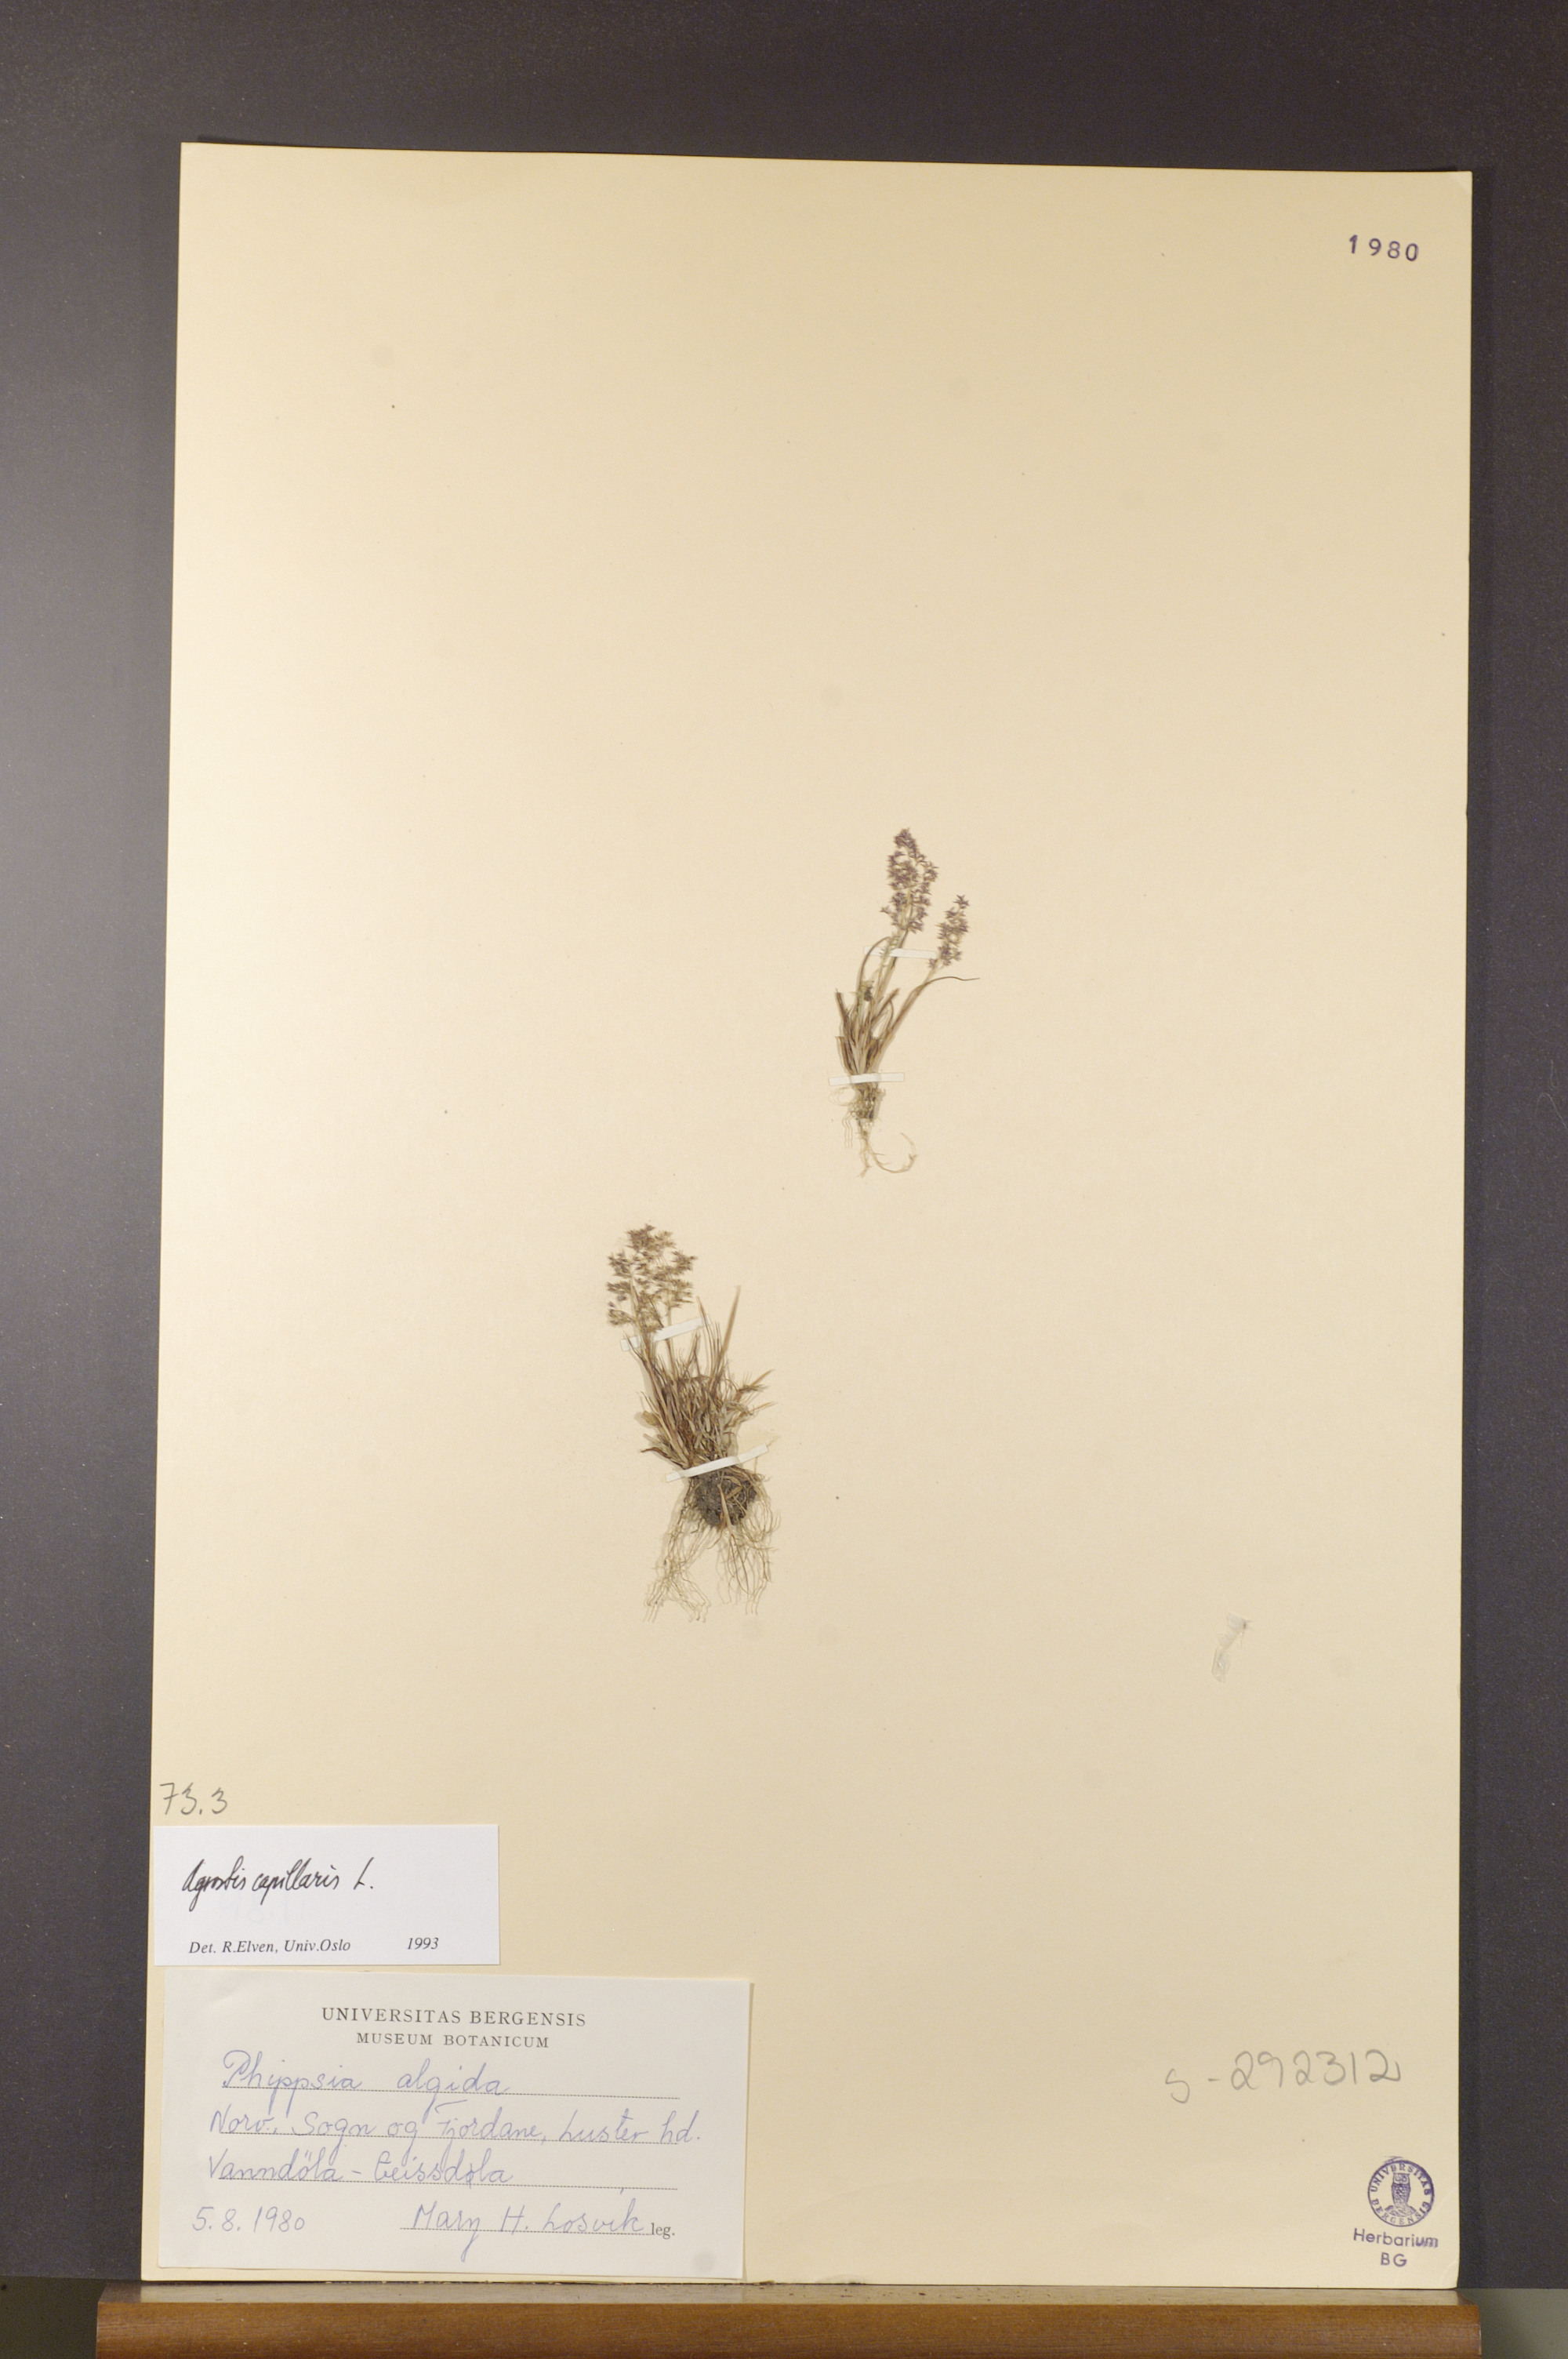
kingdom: Plantae
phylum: Tracheophyta
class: Liliopsida
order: Poales
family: Poaceae
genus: Agrostis
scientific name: Agrostis capillaris
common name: Colonial bentgrass
